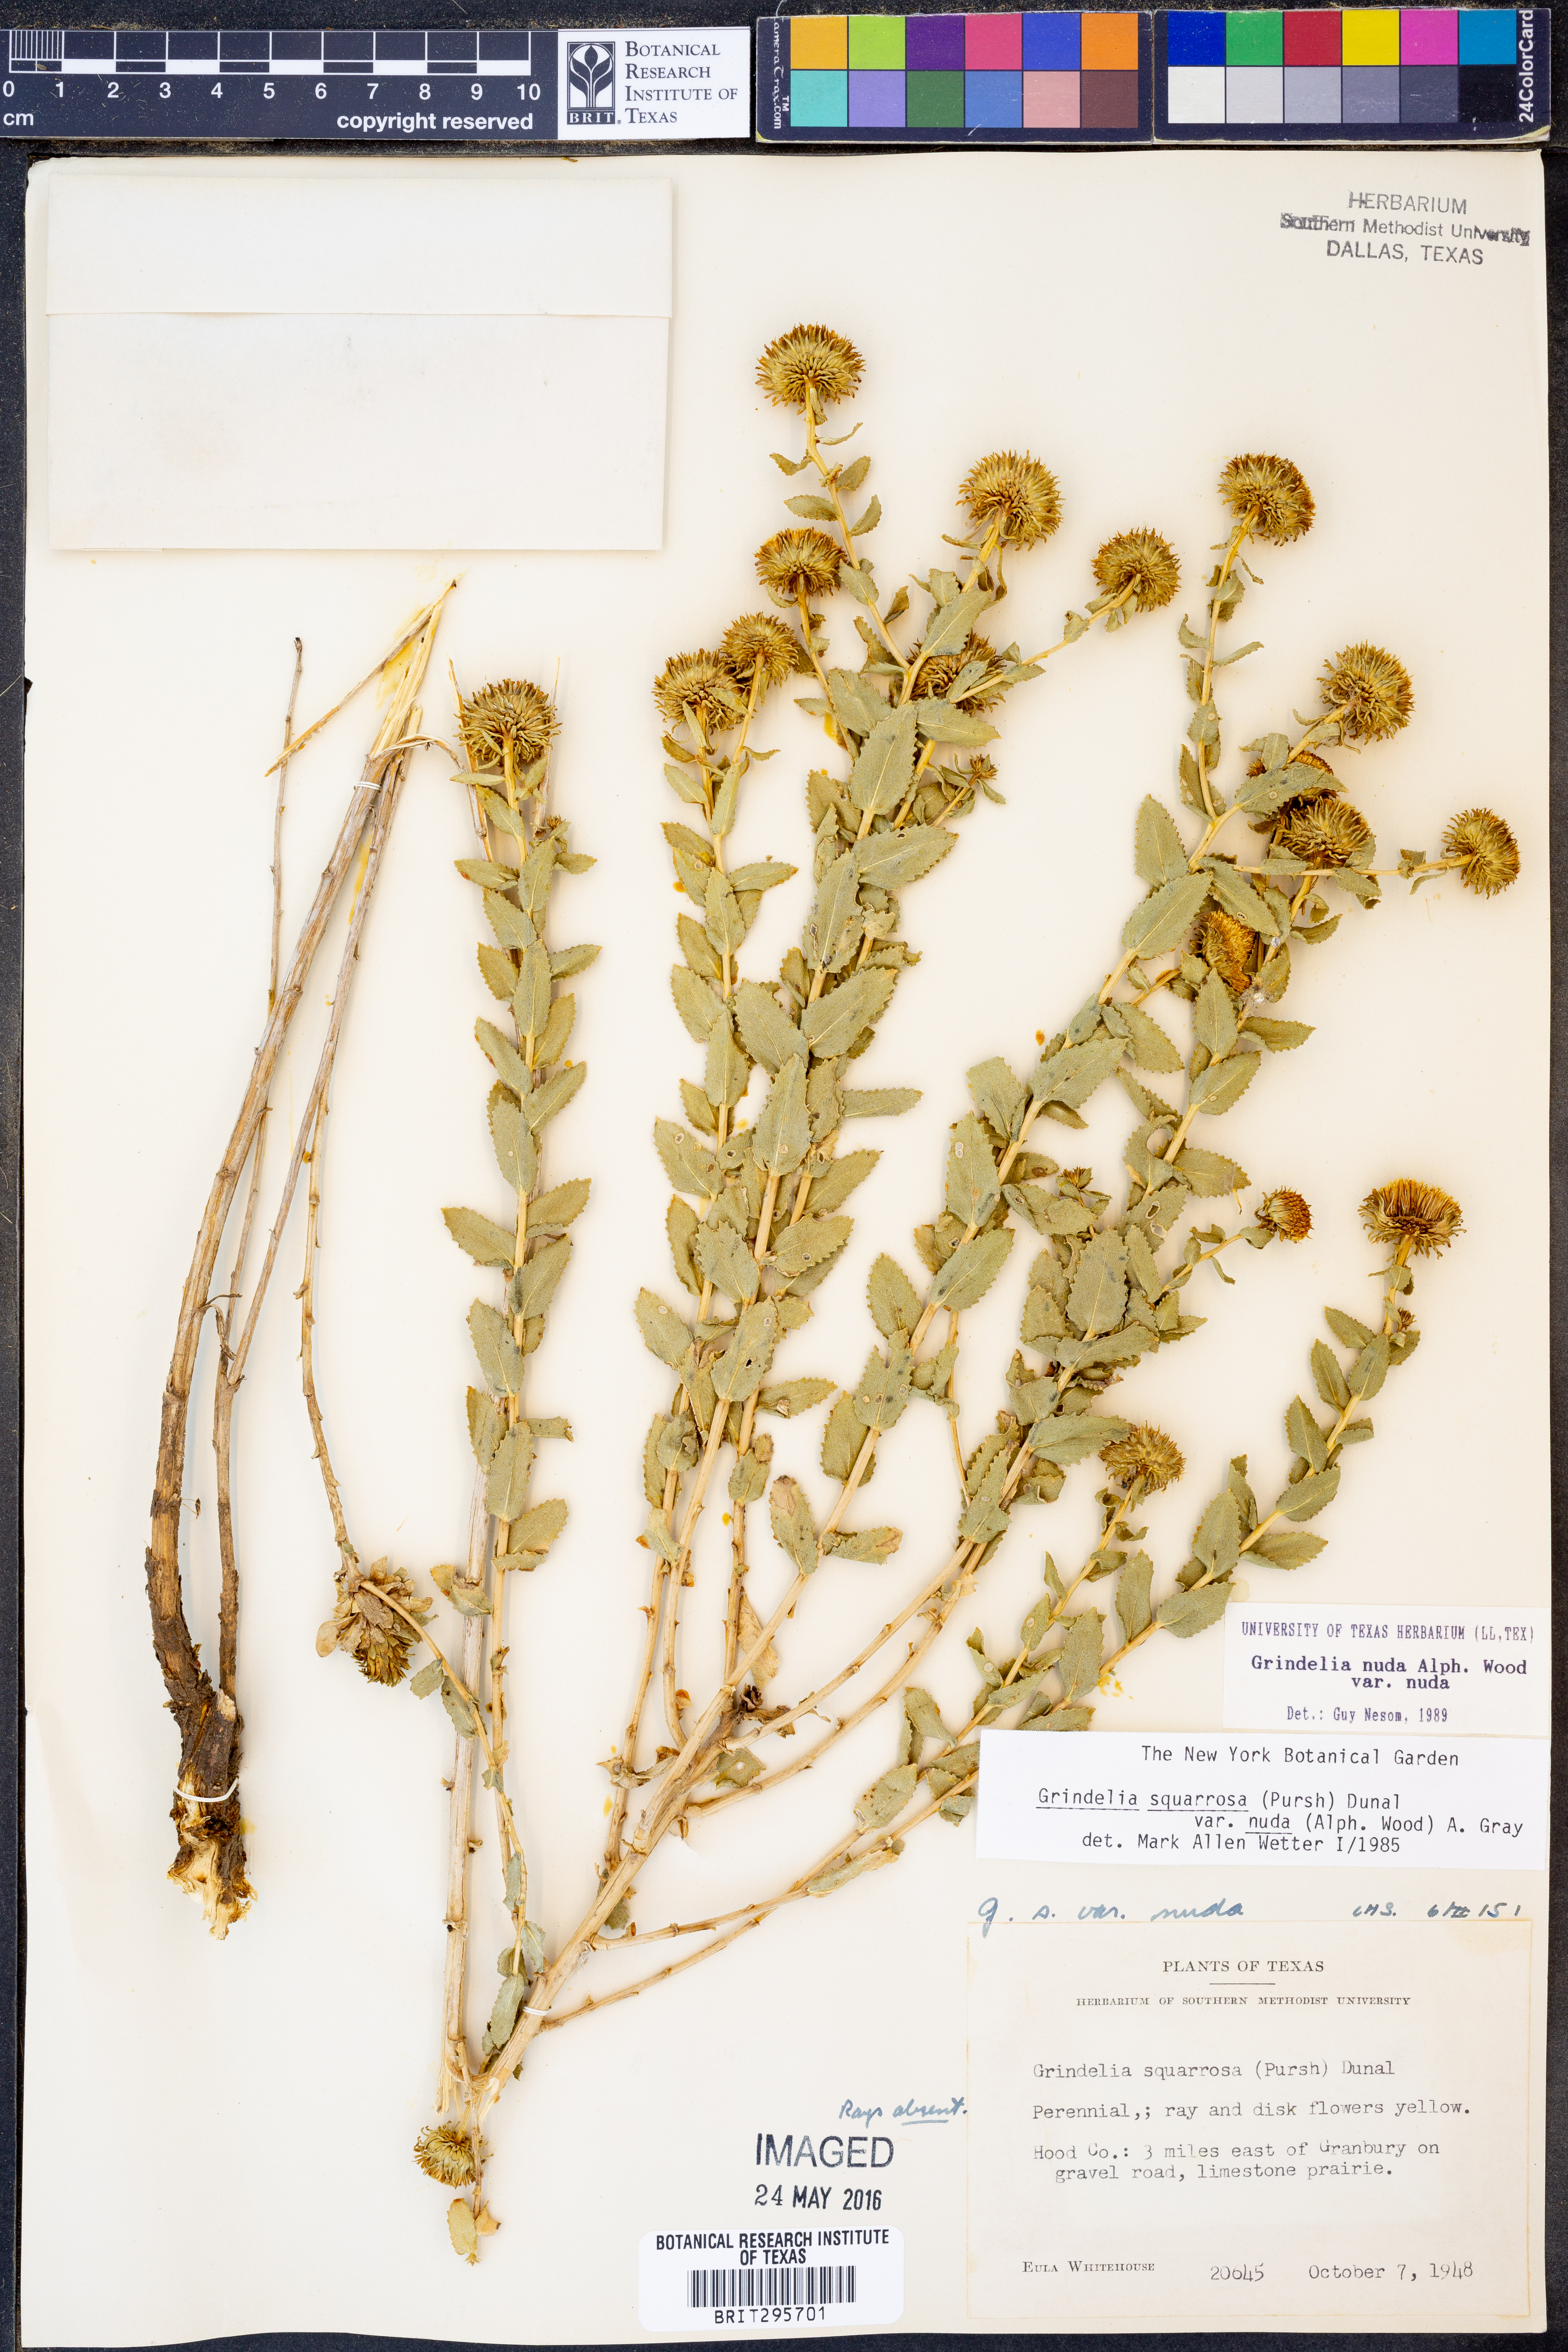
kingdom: Plantae
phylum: Tracheophyta
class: Magnoliopsida
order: Asterales
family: Asteraceae
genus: Grindelia
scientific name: Grindelia nuda
